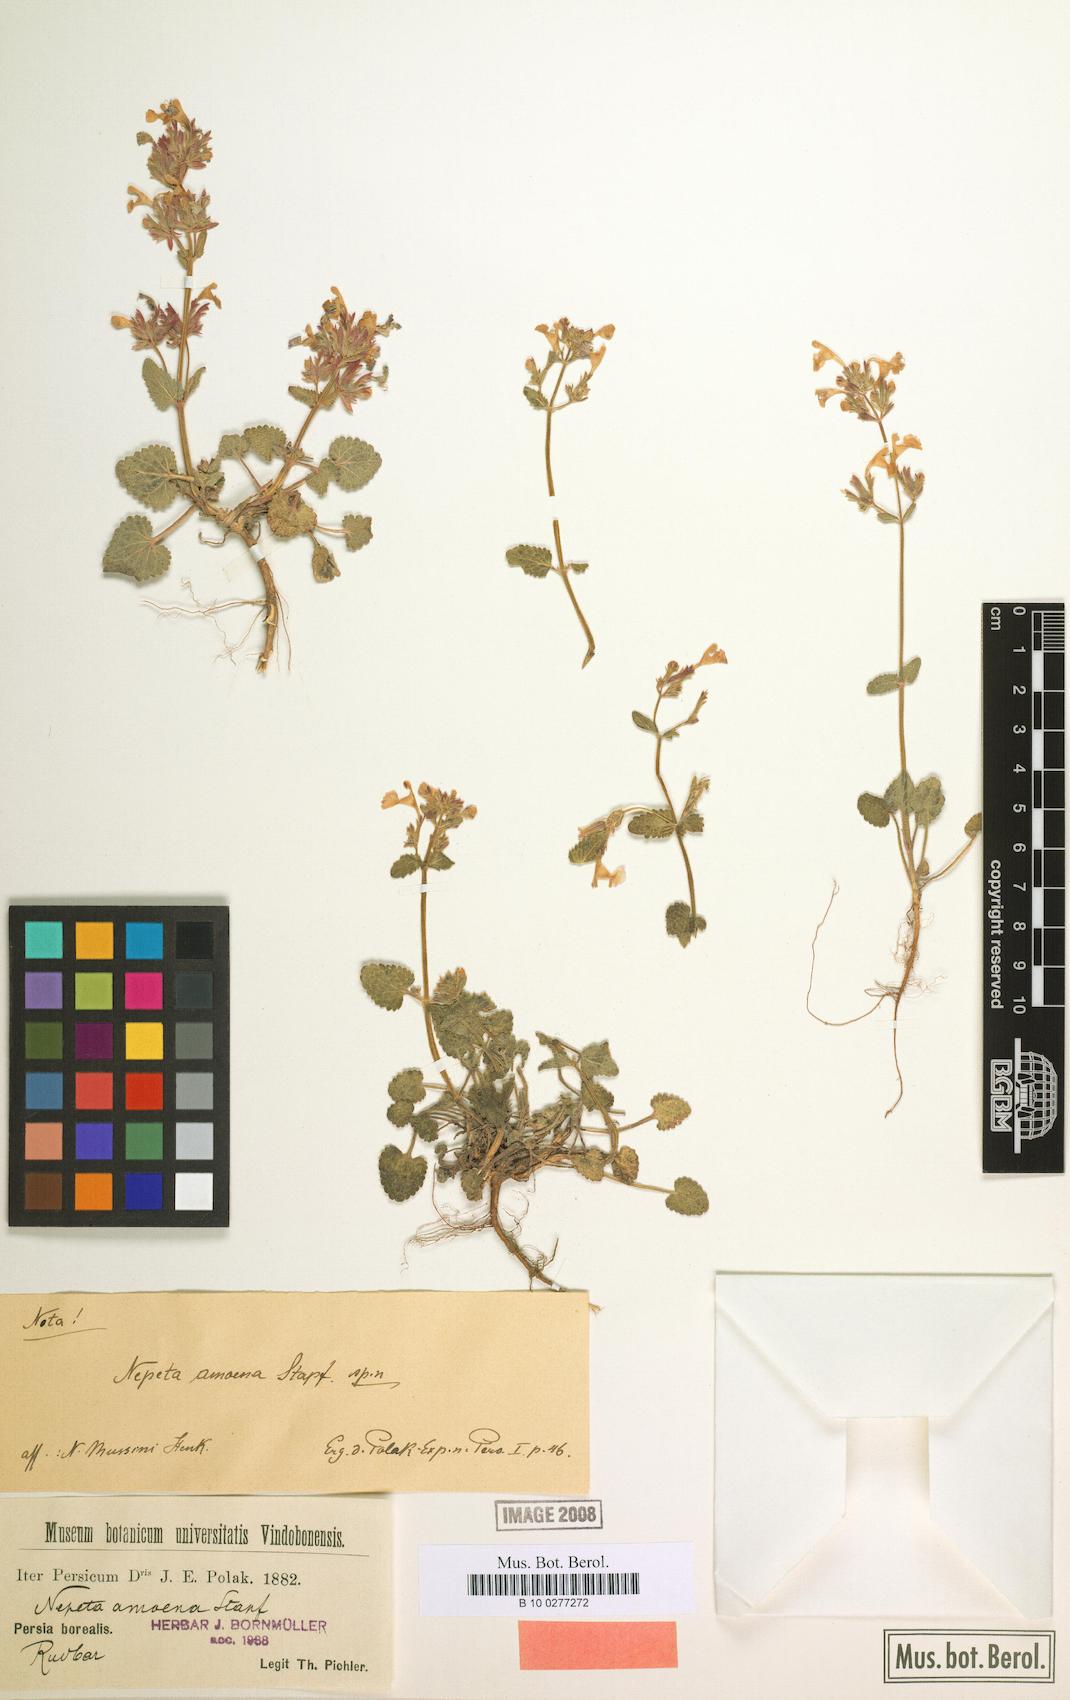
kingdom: Plantae
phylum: Tracheophyta
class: Magnoliopsida
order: Lamiales
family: Lamiaceae
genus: Nepeta
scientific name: Nepeta amoena
